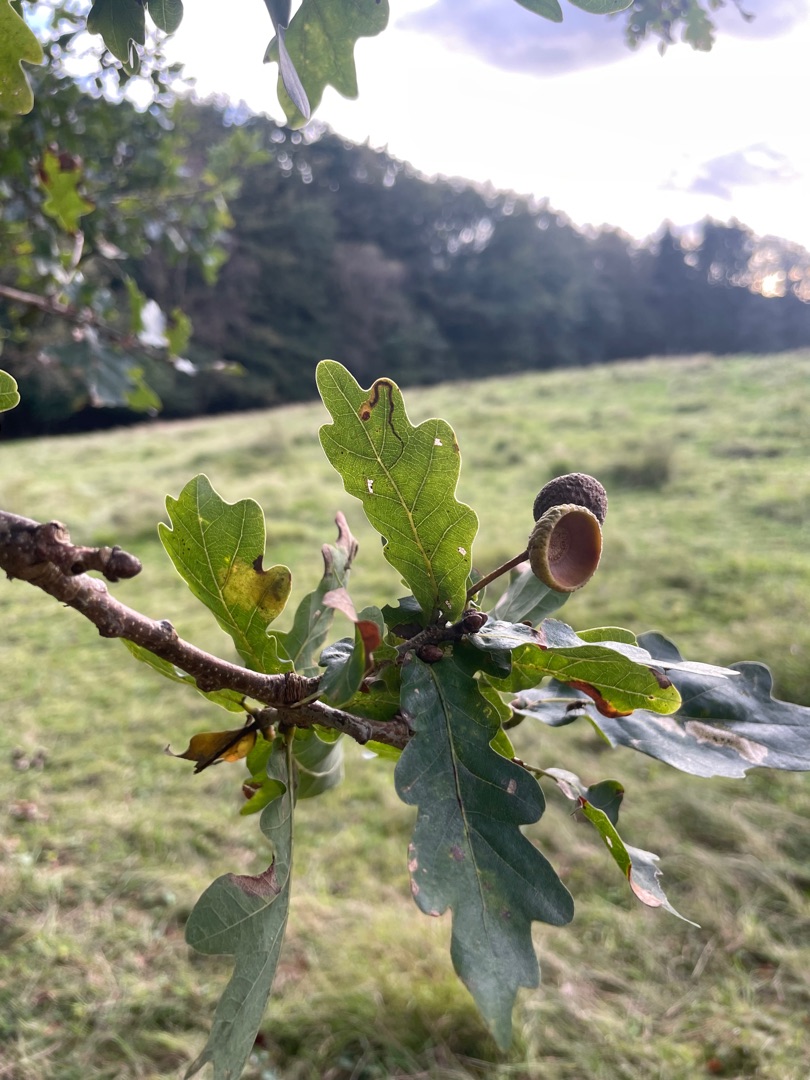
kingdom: Plantae
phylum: Tracheophyta
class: Magnoliopsida
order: Fagales
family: Fagaceae
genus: Quercus
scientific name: Quercus robur
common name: Stilk-eg/almindelig eg
